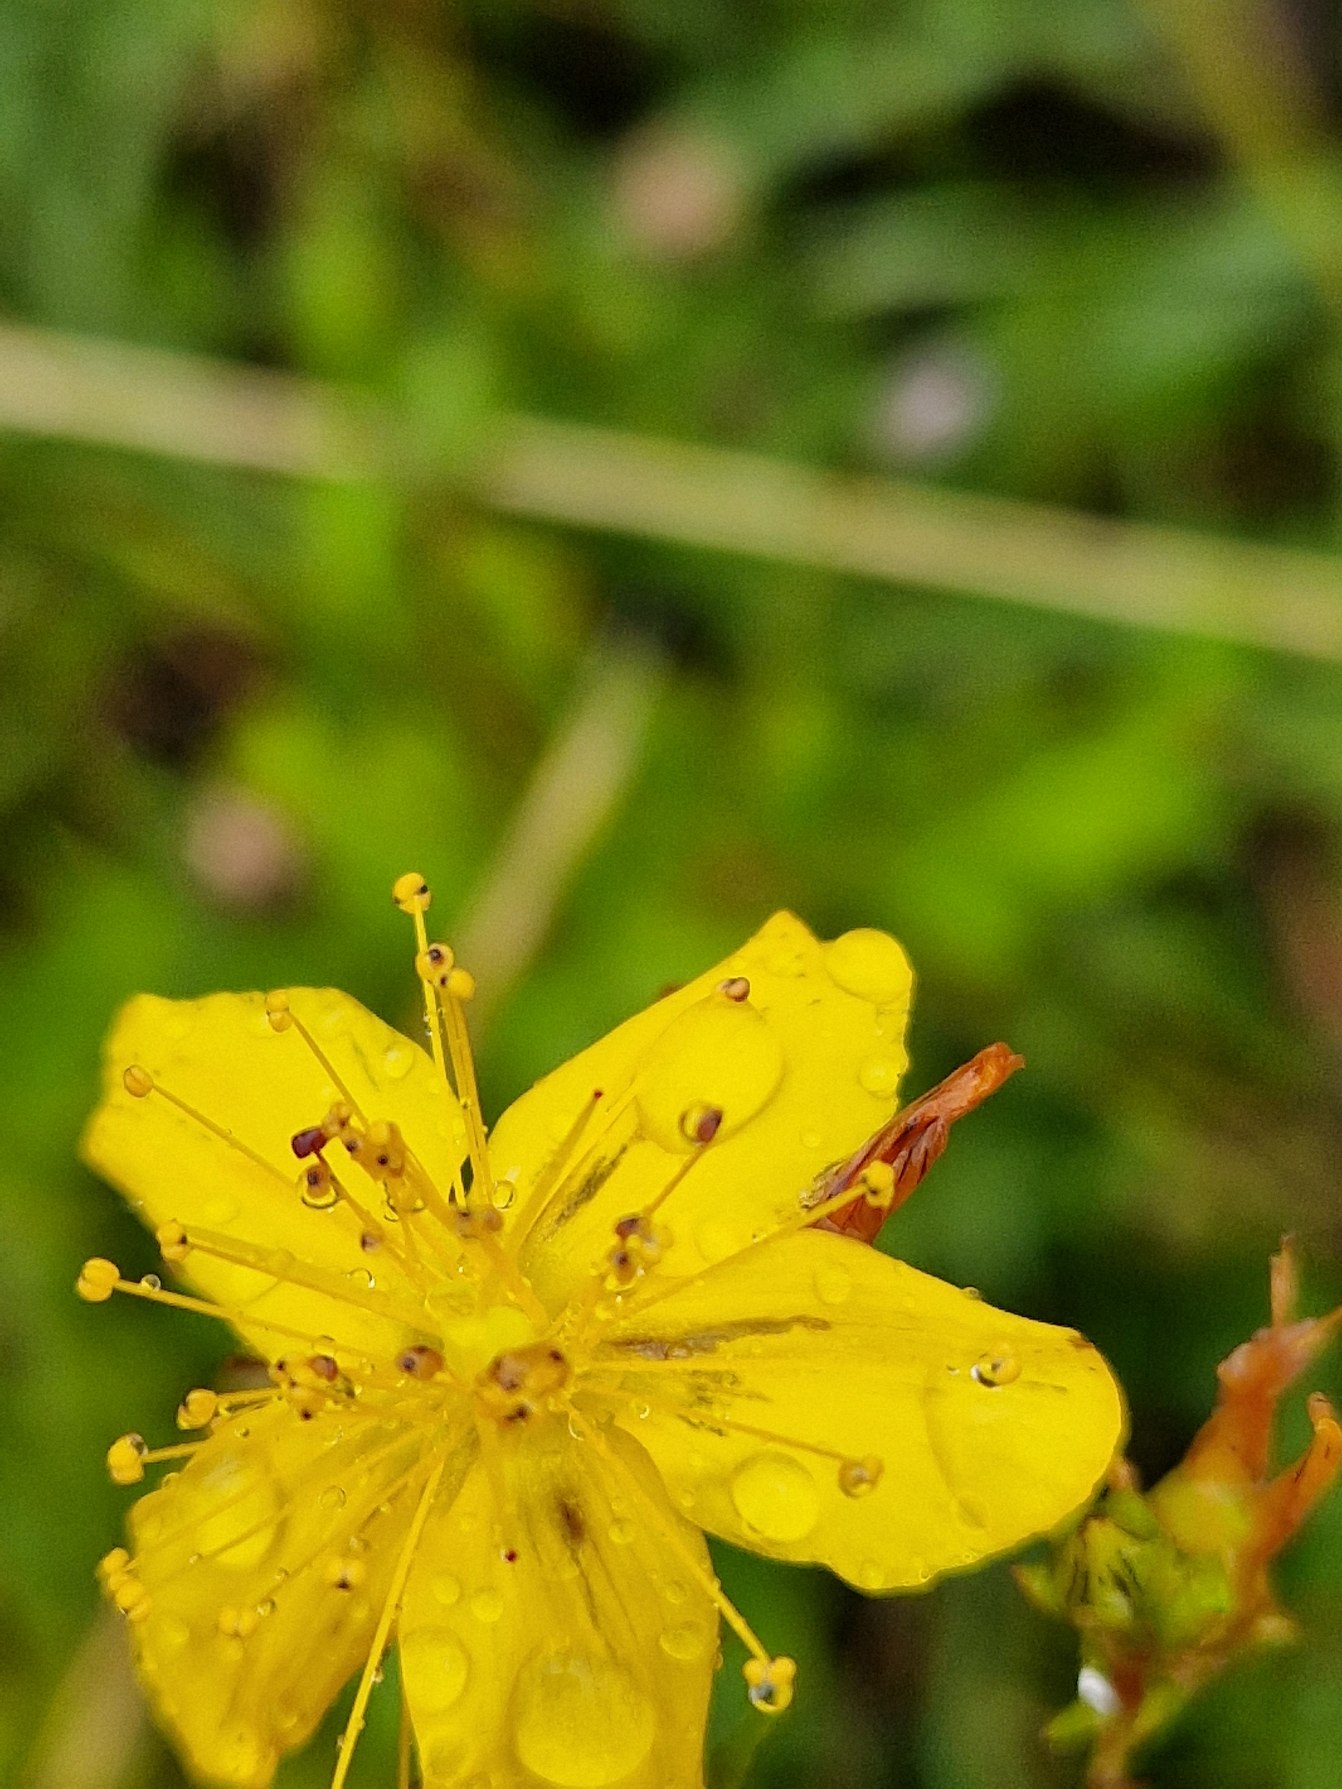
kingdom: Plantae
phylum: Tracheophyta
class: Magnoliopsida
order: Malpighiales
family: Hypericaceae
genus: Hypericum
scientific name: Hypericum perforatum
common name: Prikbladet perikon
